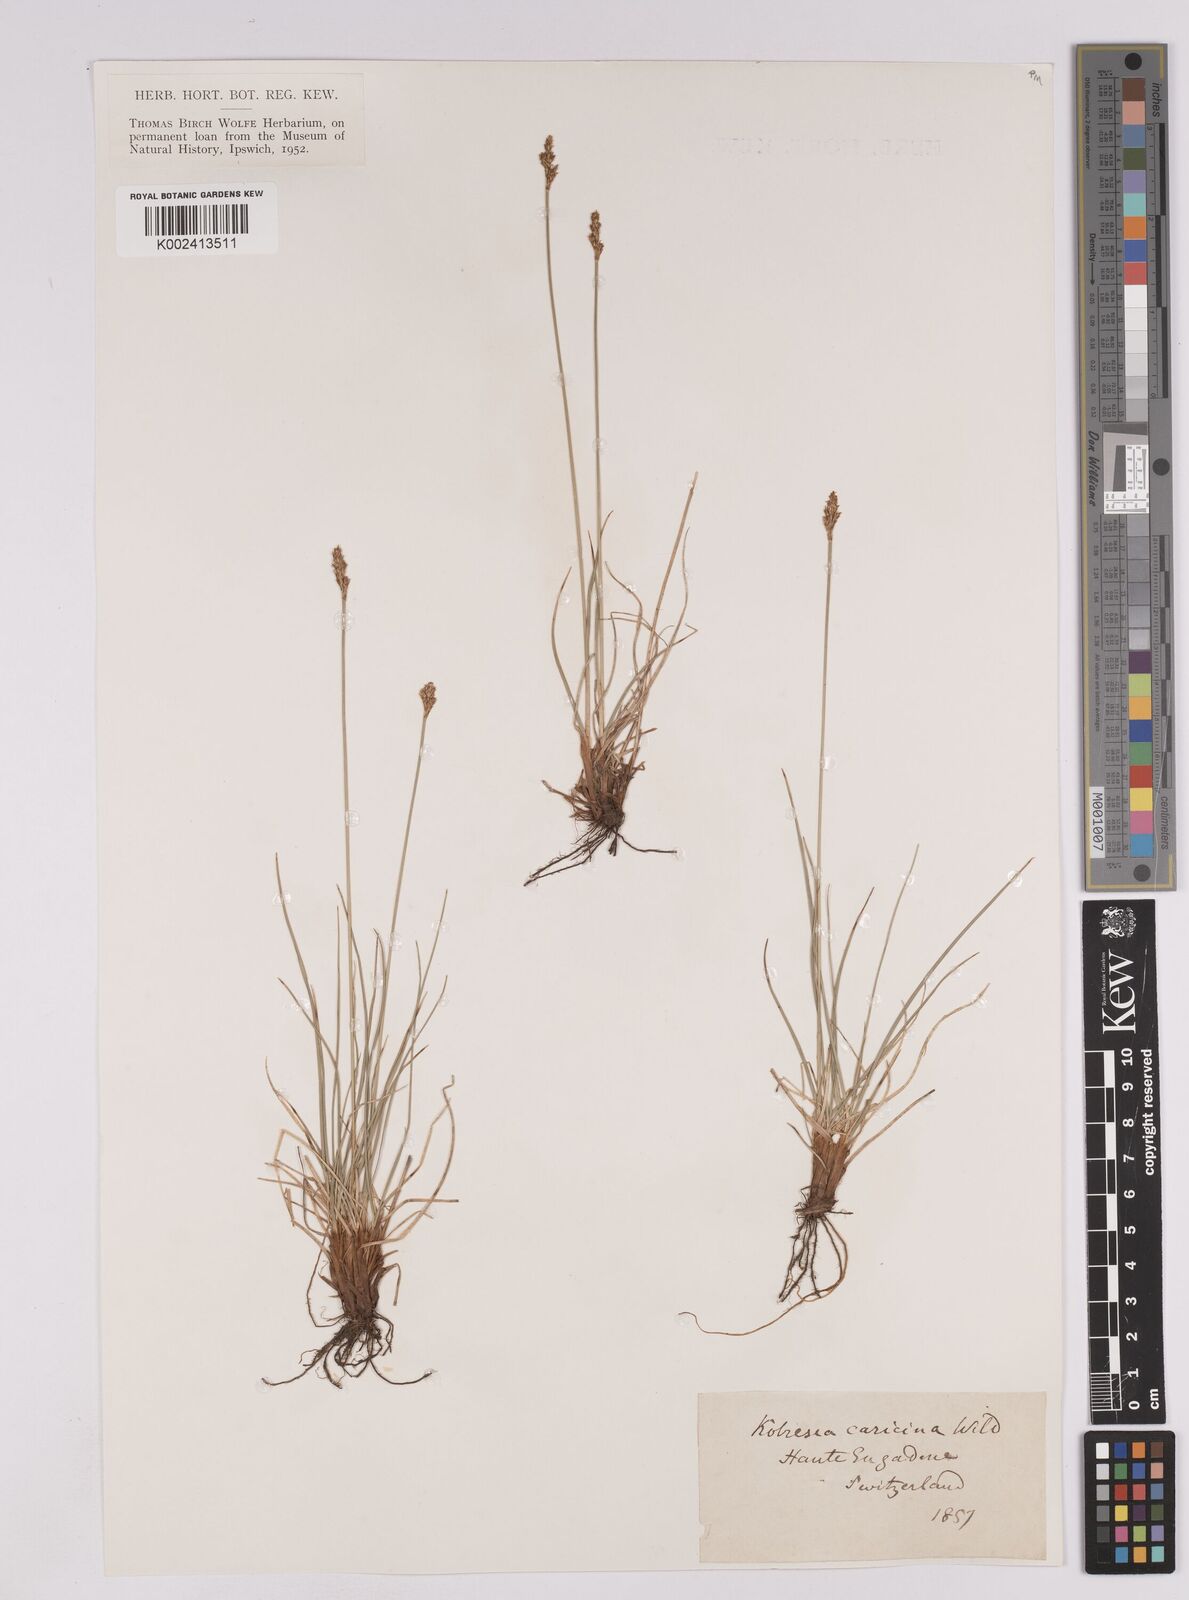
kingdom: Plantae
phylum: Tracheophyta
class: Liliopsida
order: Poales
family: Cyperaceae
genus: Carex
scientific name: Carex simpliciuscula
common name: Simple bog sedge
